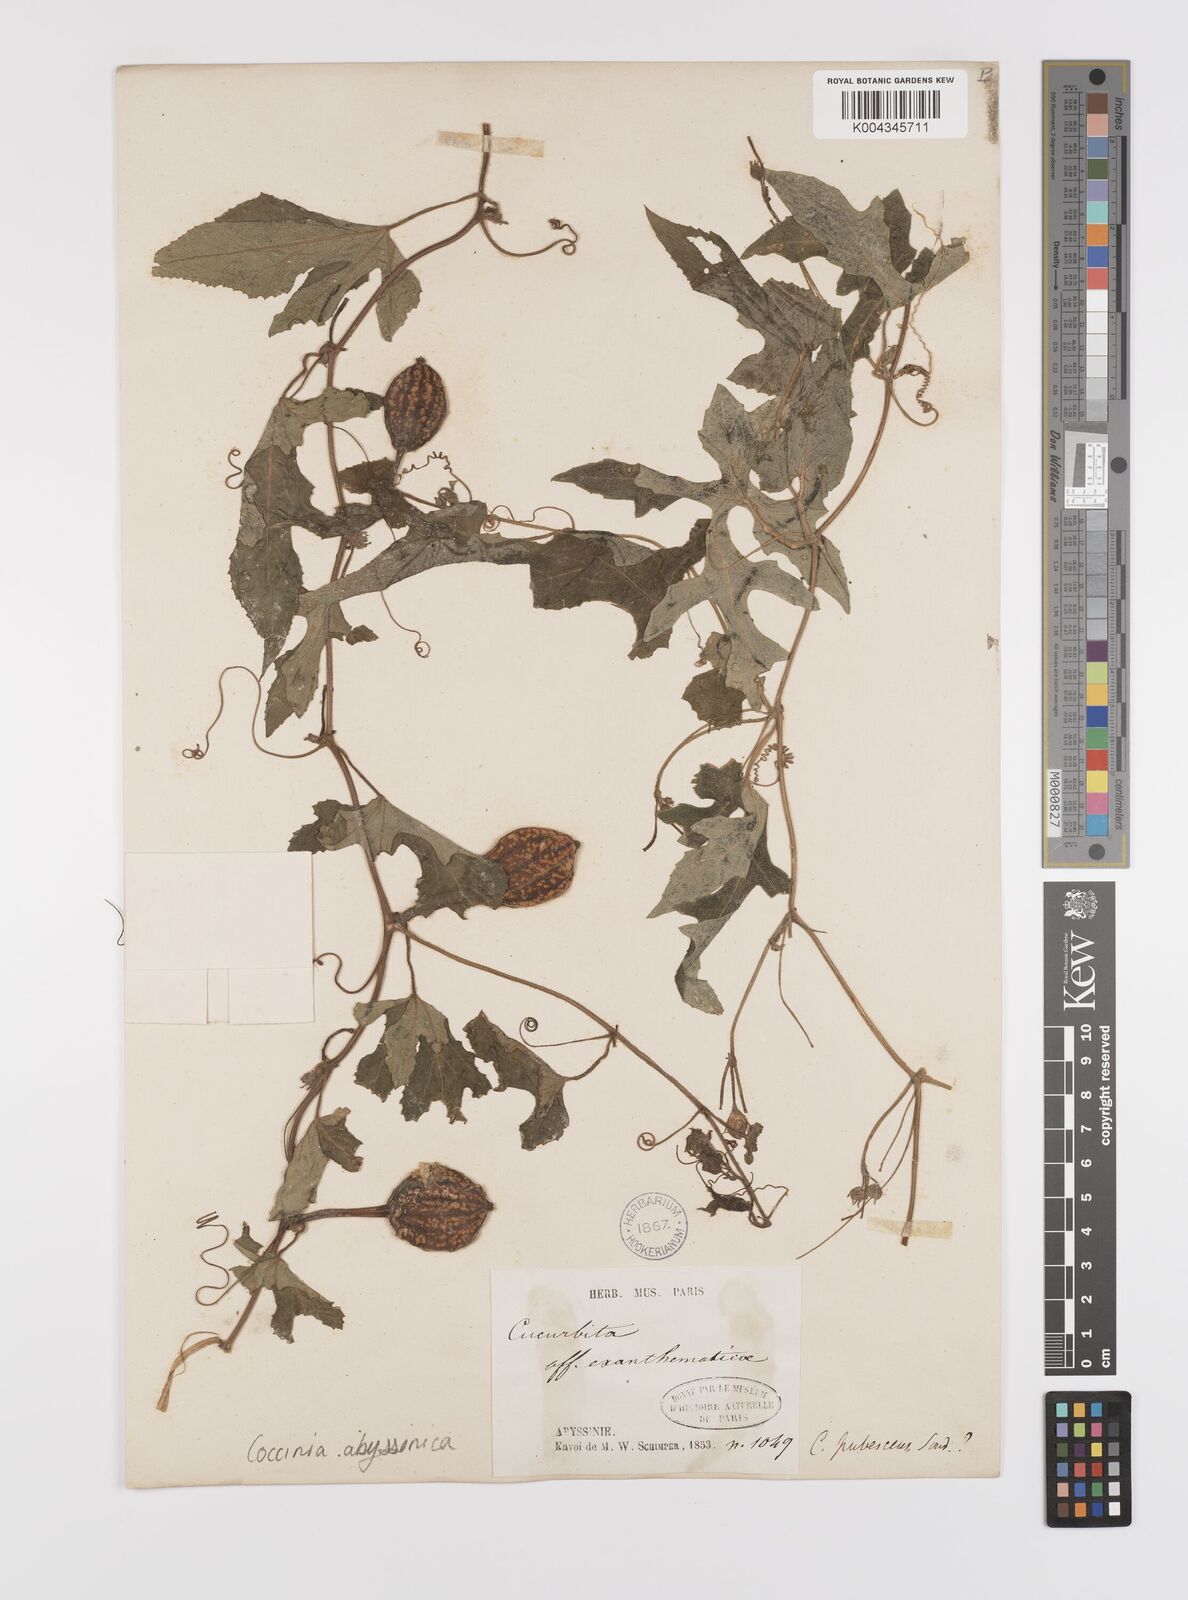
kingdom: Plantae
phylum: Tracheophyta
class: Magnoliopsida
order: Cucurbitales
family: Cucurbitaceae
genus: Coccinia
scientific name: Coccinia abyssinica
